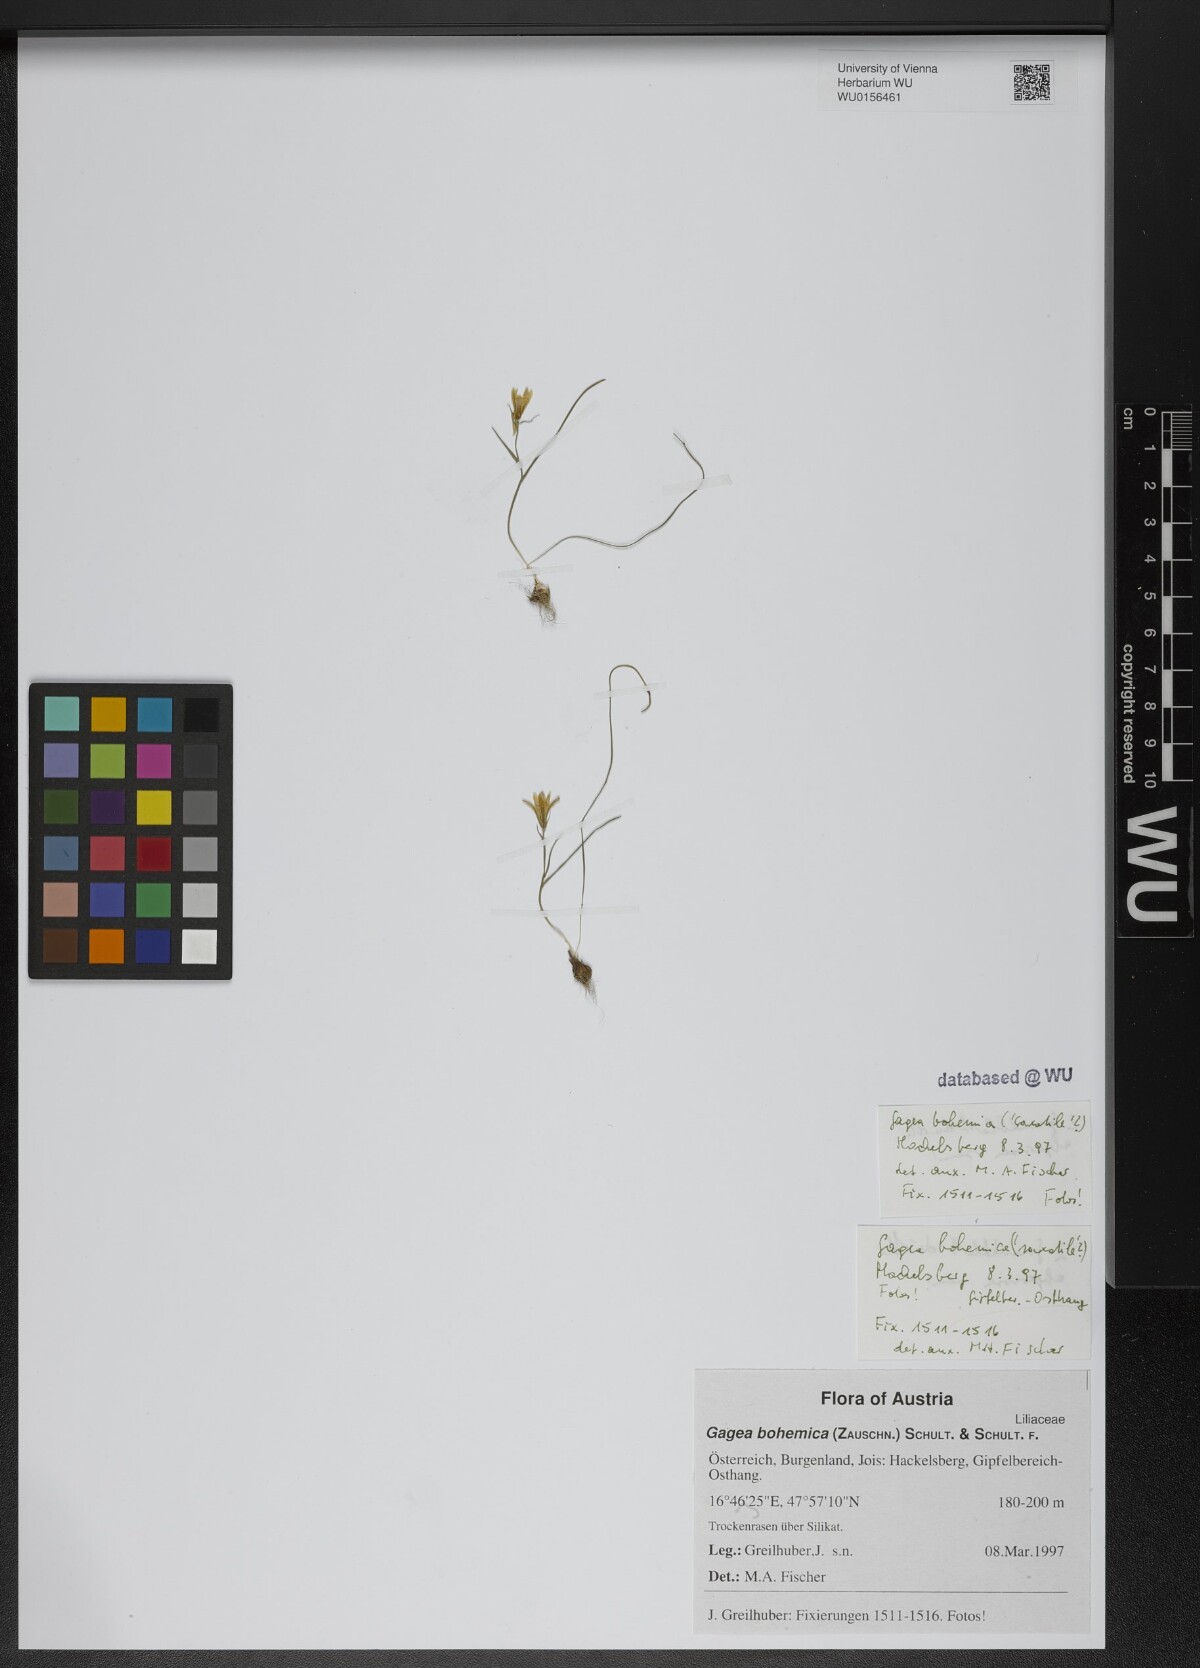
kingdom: Plantae
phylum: Tracheophyta
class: Liliopsida
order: Liliales
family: Liliaceae
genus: Gagea
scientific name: Gagea bohemica
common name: Early star-of-bethlehem
